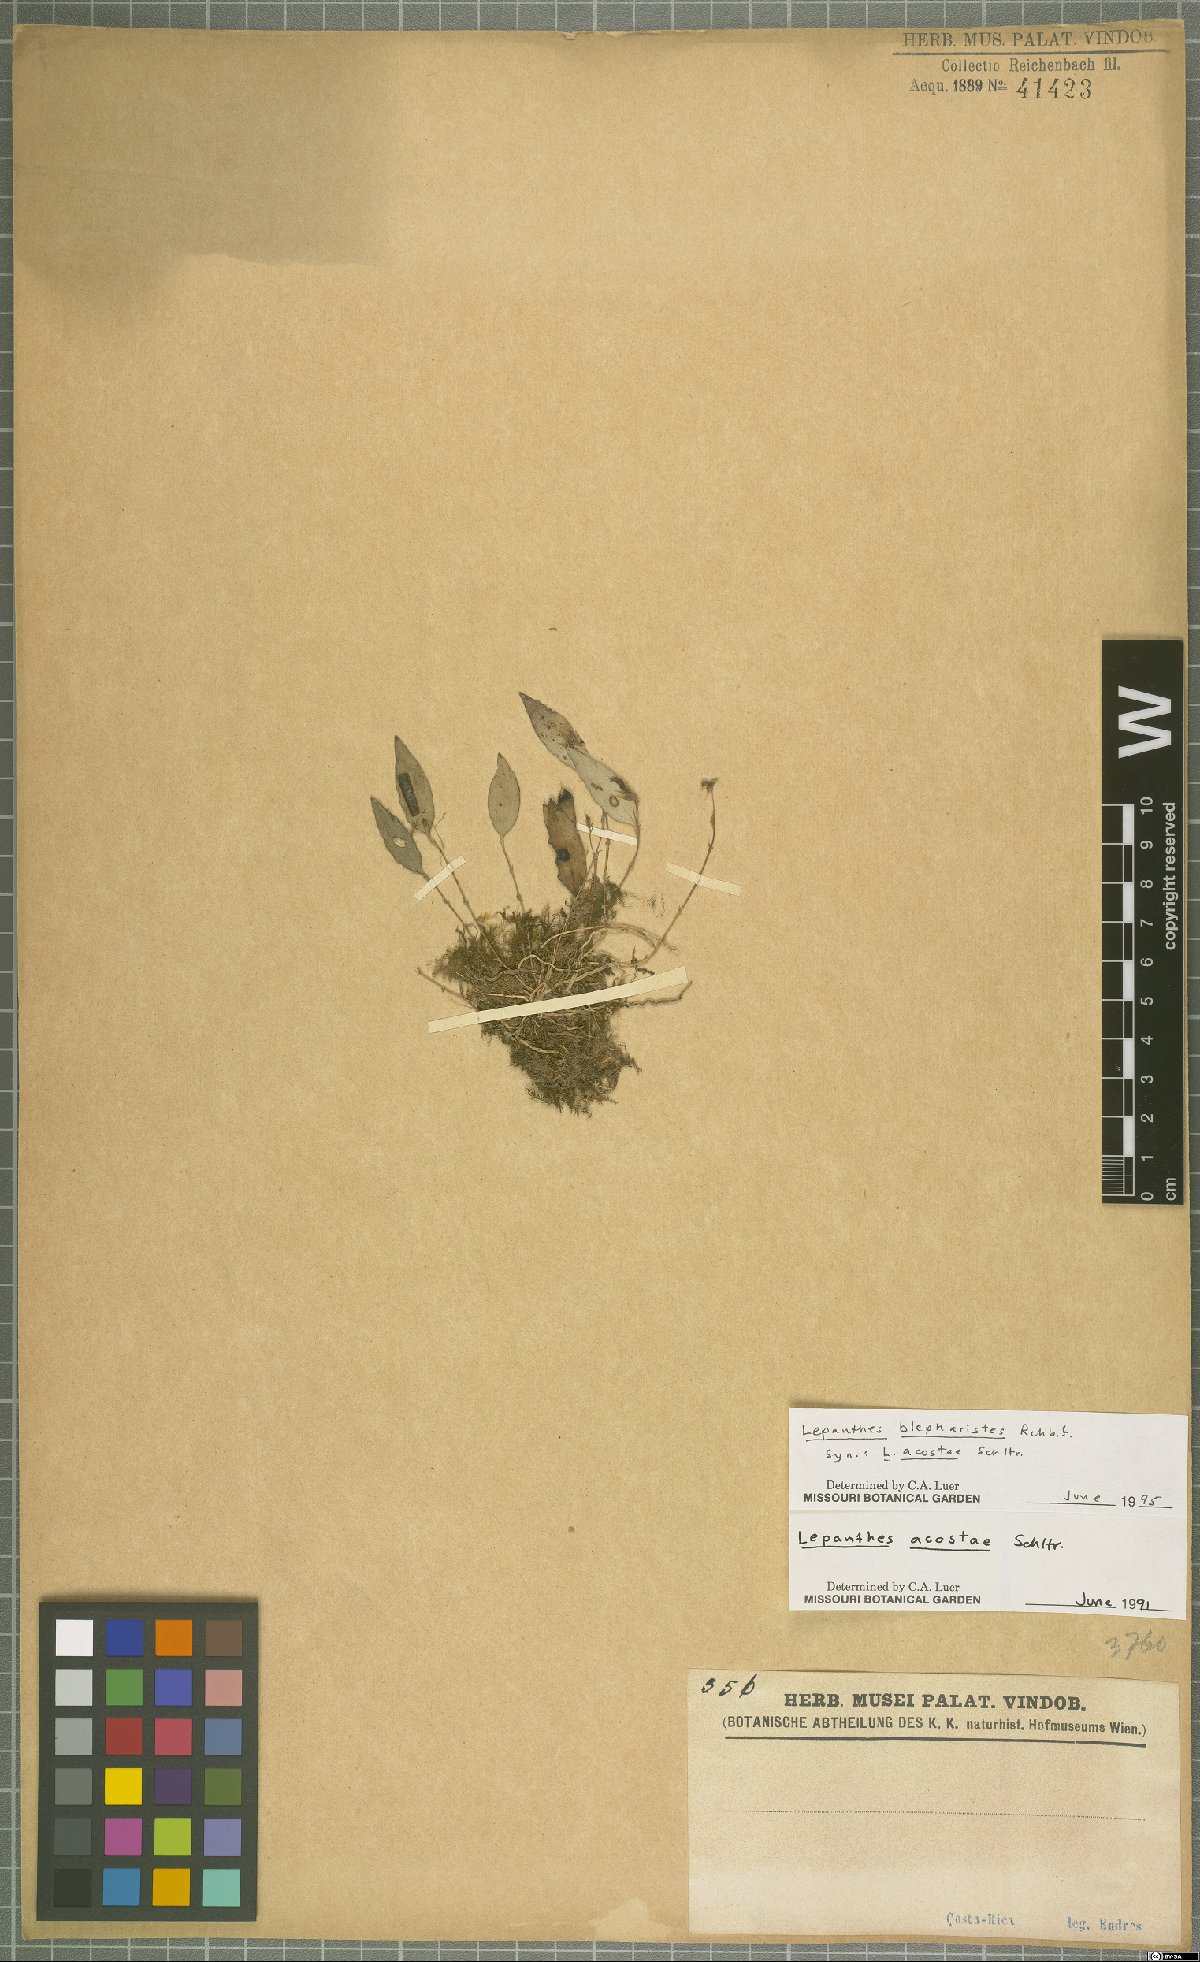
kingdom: Plantae
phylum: Tracheophyta
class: Liliopsida
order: Asparagales
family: Orchidaceae
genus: Lepanthes
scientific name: Lepanthes blepharistes
